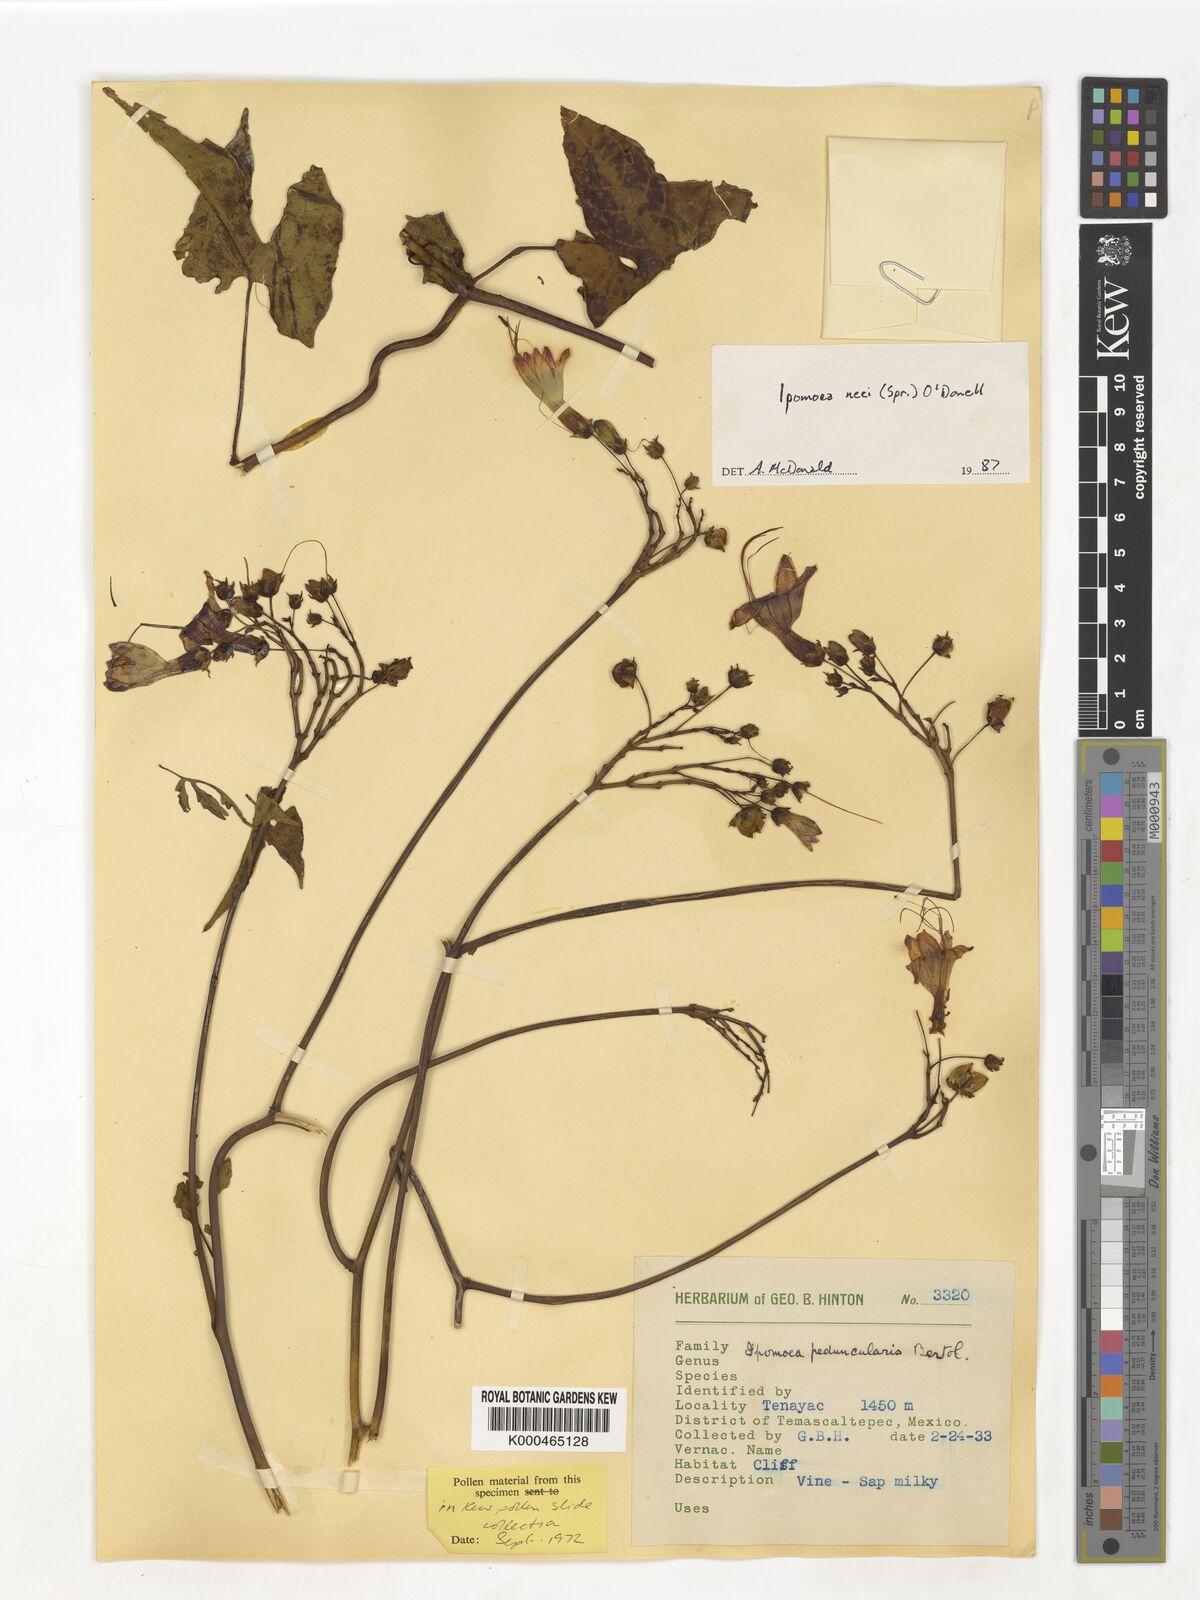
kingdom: Plantae
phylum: Tracheophyta
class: Magnoliopsida
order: Solanales
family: Convolvulaceae
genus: Ipomoea
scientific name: Ipomoea
